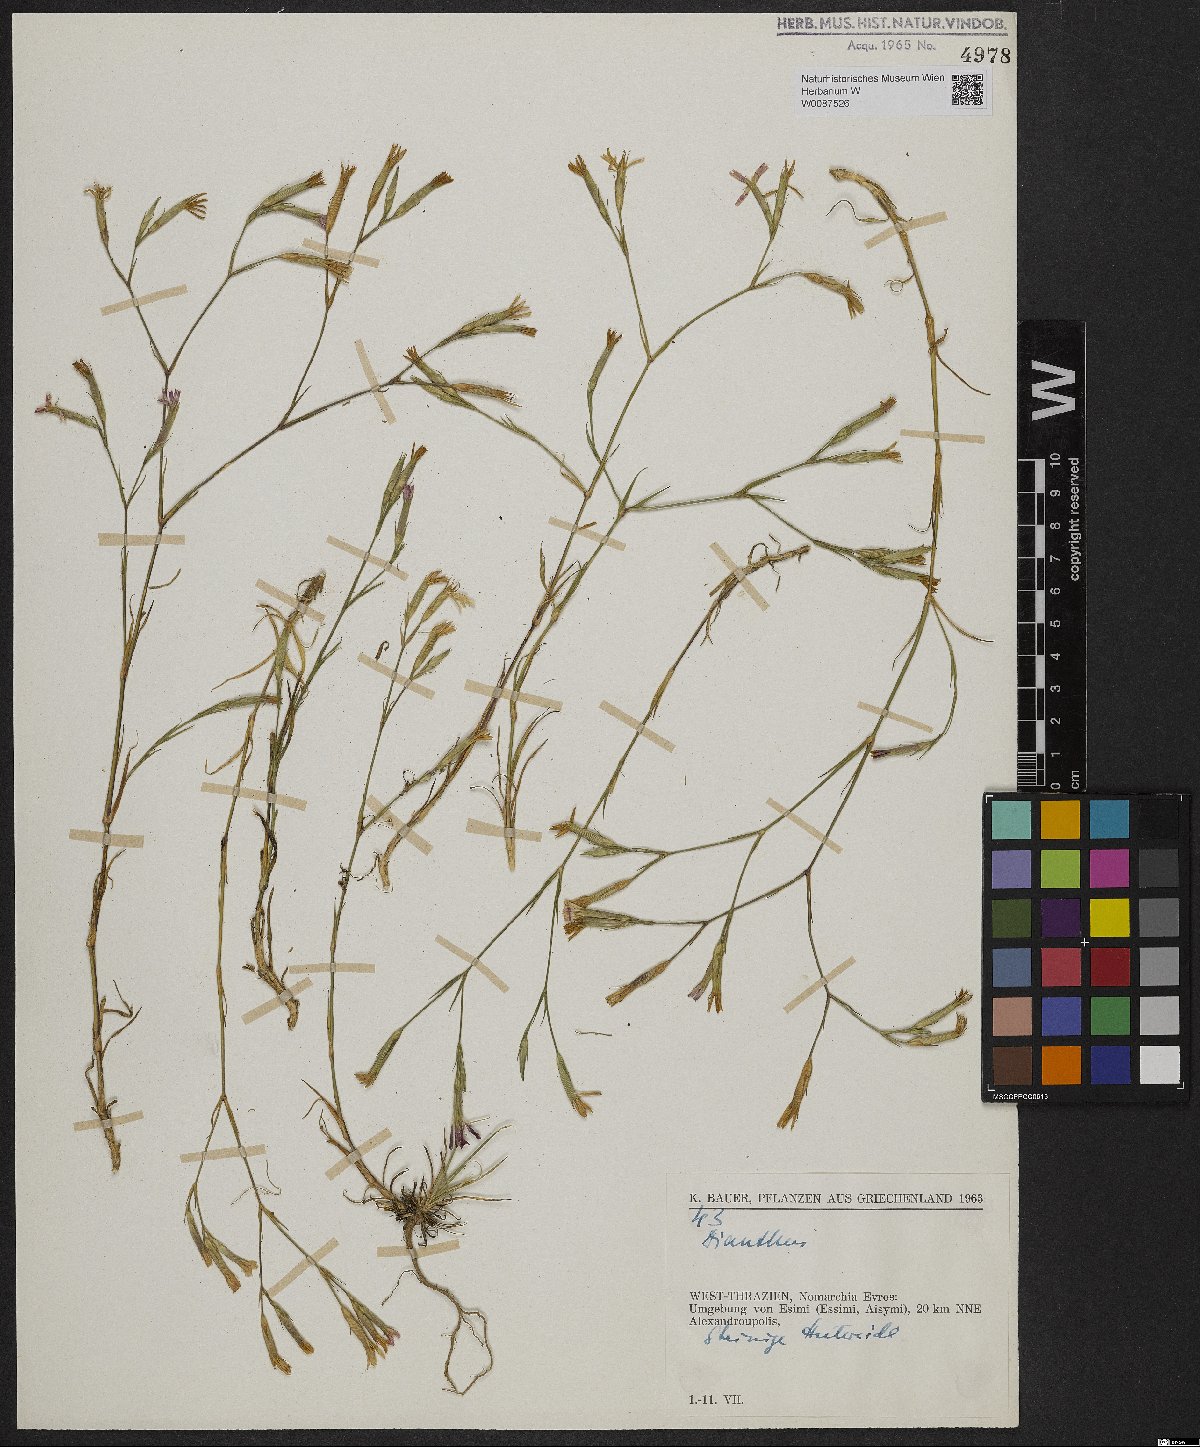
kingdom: Plantae
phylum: Tracheophyta
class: Magnoliopsida
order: Caryophyllales
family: Caryophyllaceae
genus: Dianthus
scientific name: Dianthus
